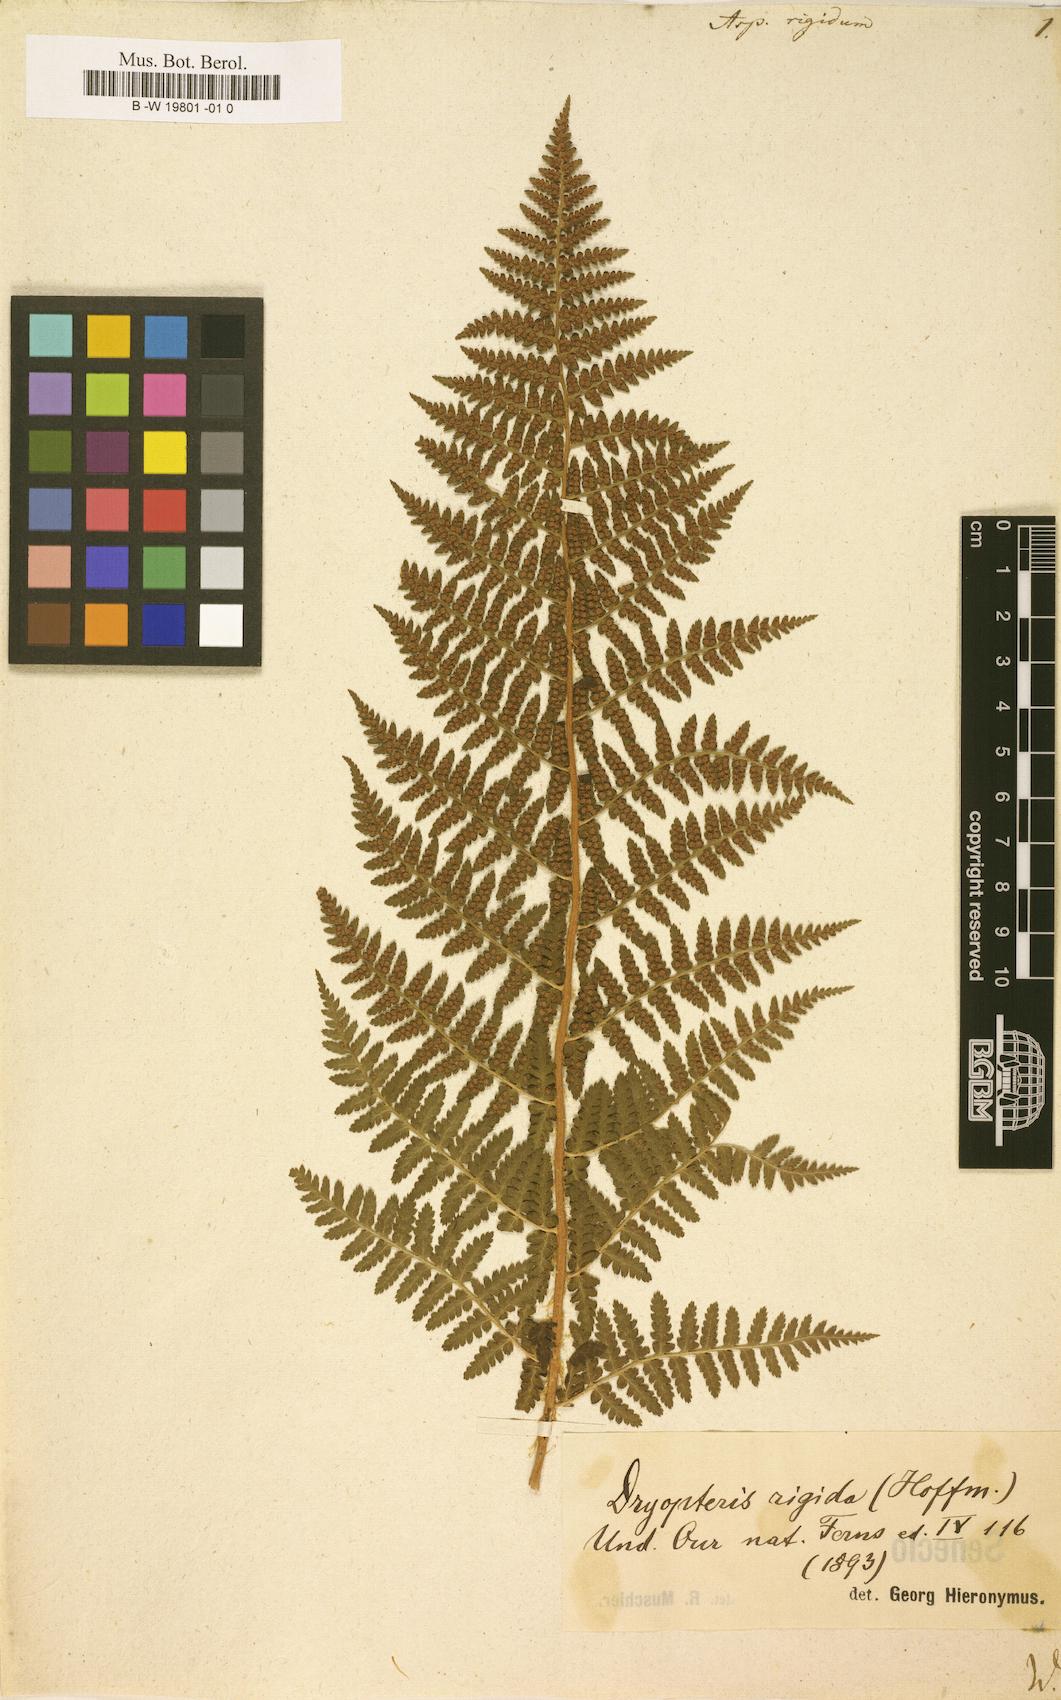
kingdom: Plantae
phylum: Tracheophyta
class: Polypodiopsida
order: Polypodiales
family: Dryopteridaceae
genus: Dryopteris
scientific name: Dryopteris villarii
